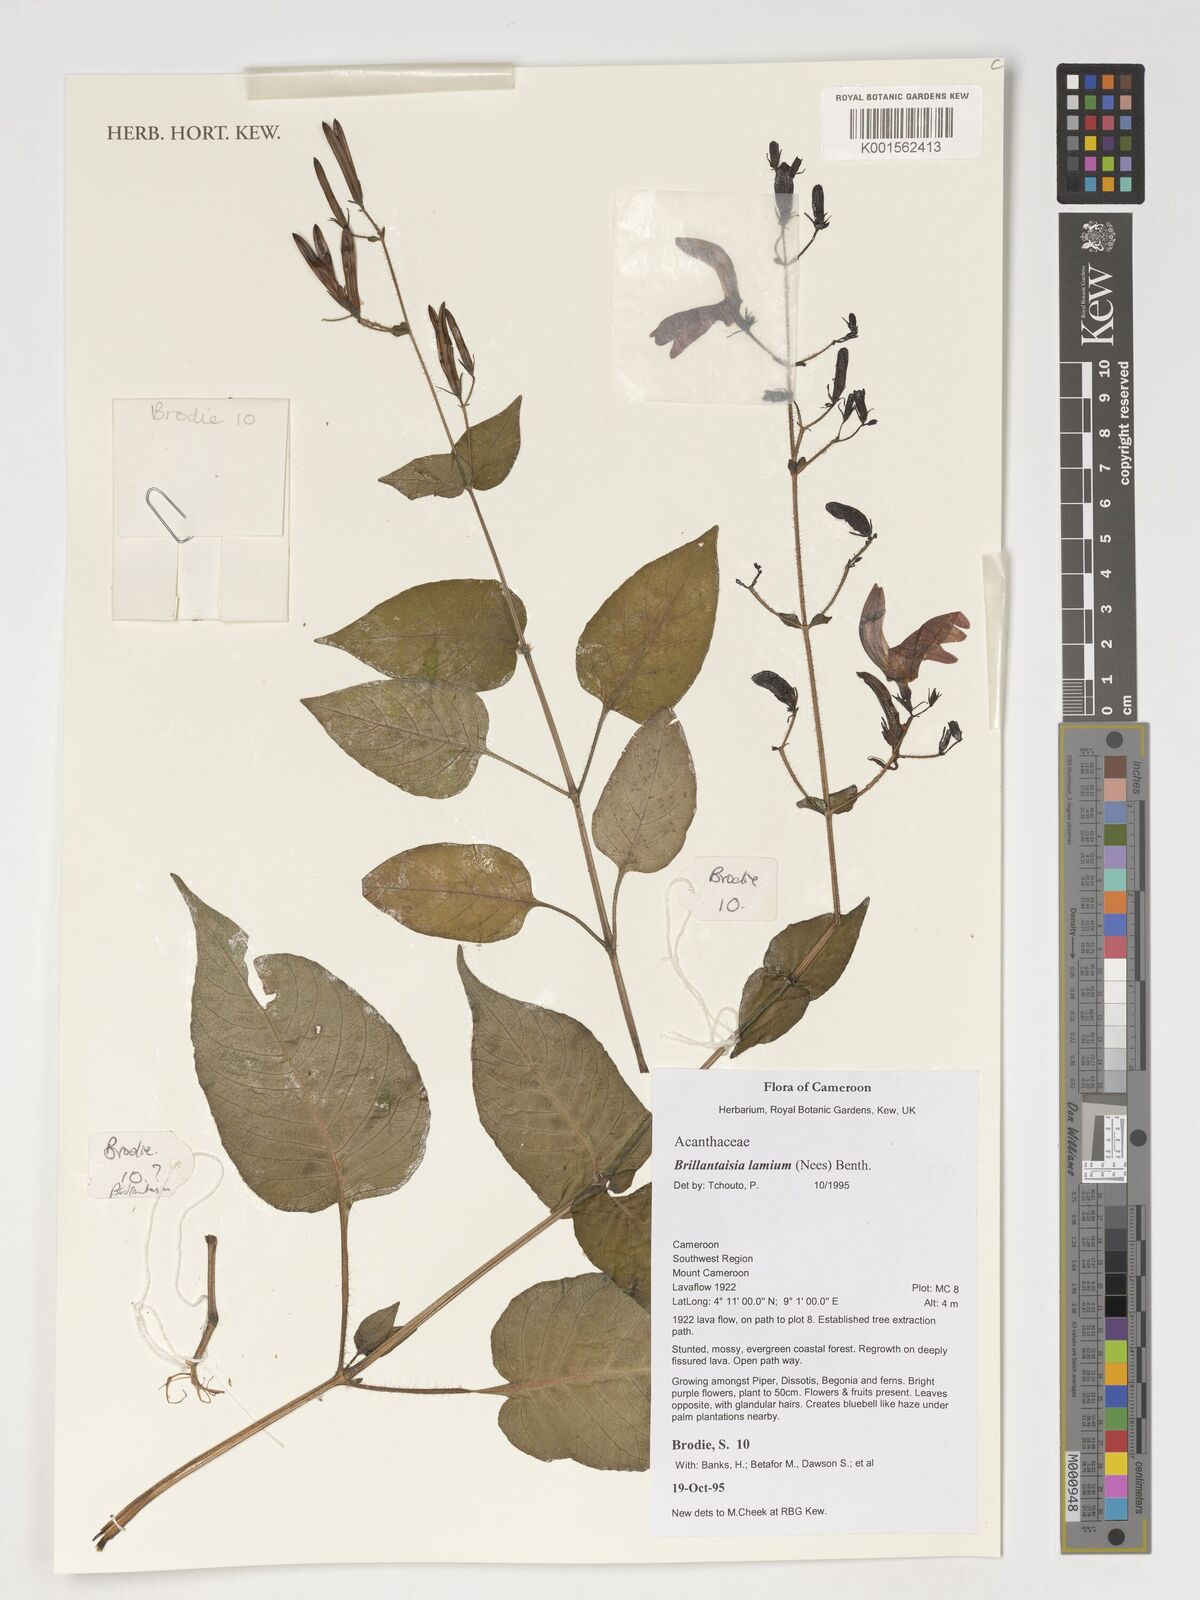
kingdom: Plantae
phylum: Tracheophyta
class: Magnoliopsida
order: Lamiales
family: Acanthaceae
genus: Brillantaisia
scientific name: Brillantaisia lamium
